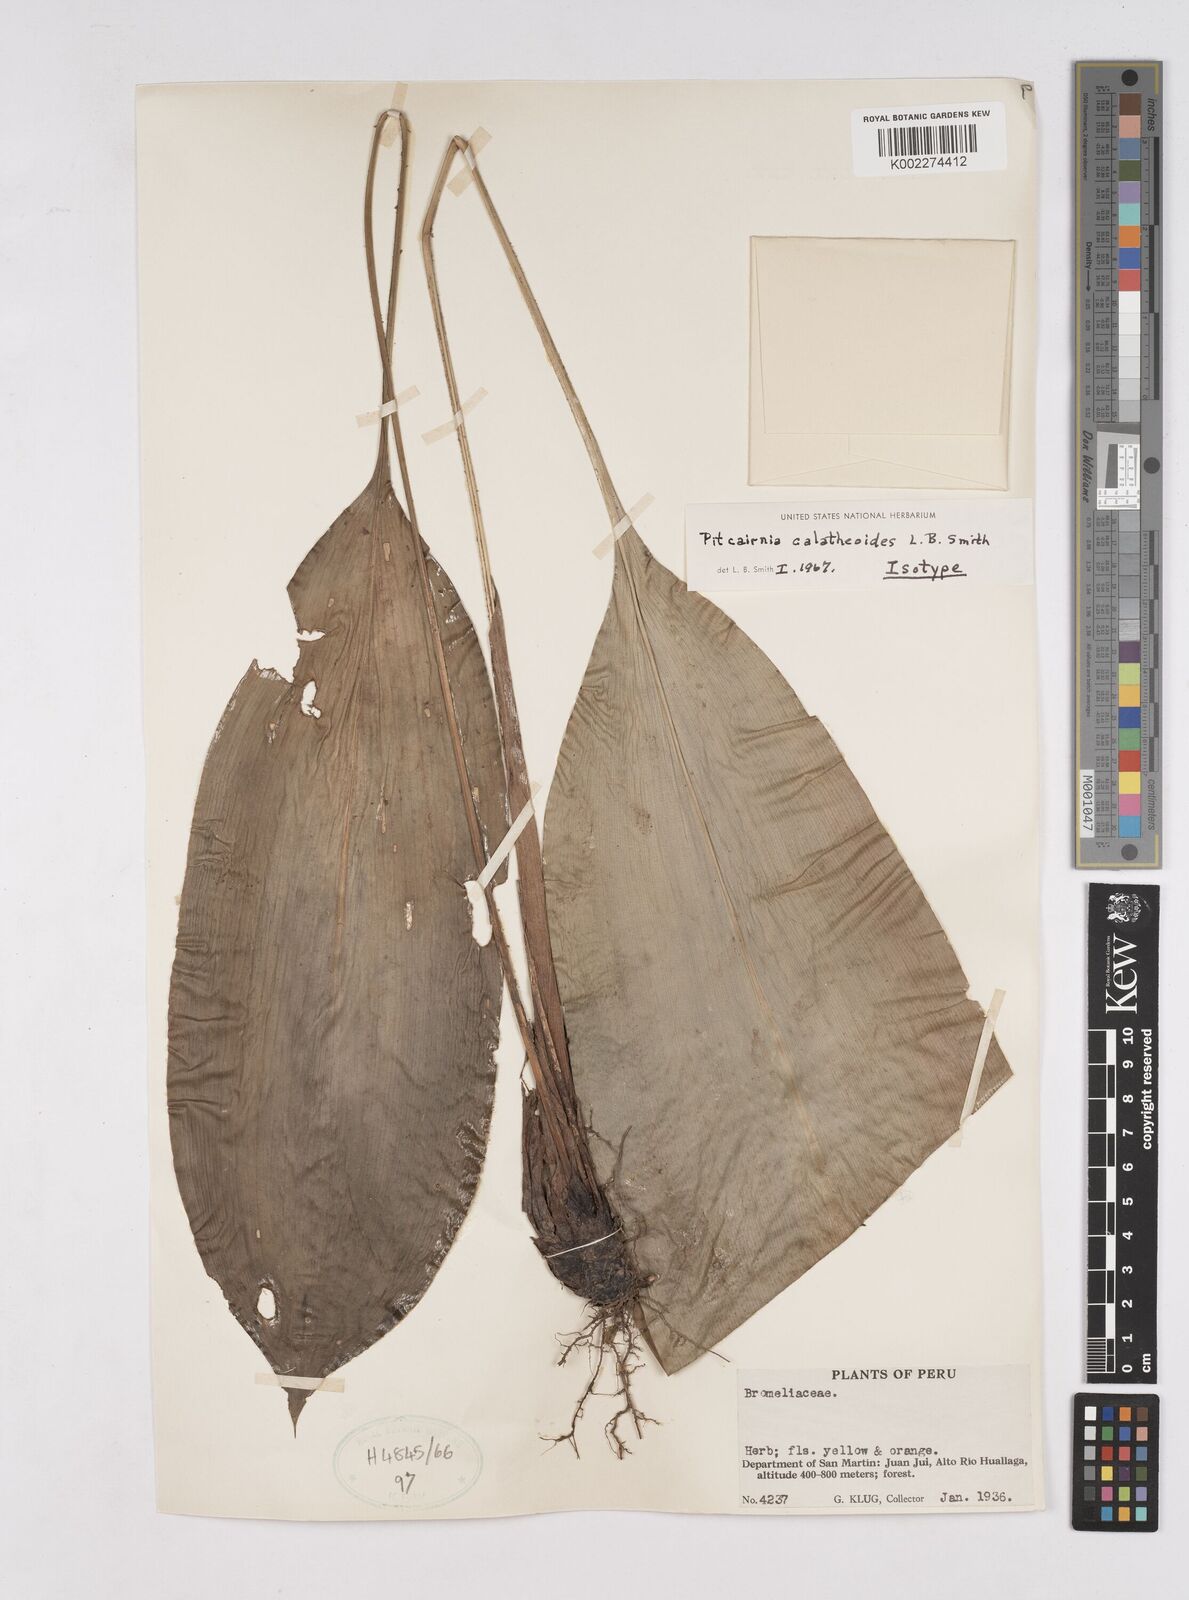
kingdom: Plantae
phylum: Tracheophyta
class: Liliopsida
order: Poales
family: Bromeliaceae
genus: Pitcairnia
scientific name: Pitcairnia calatheoides
